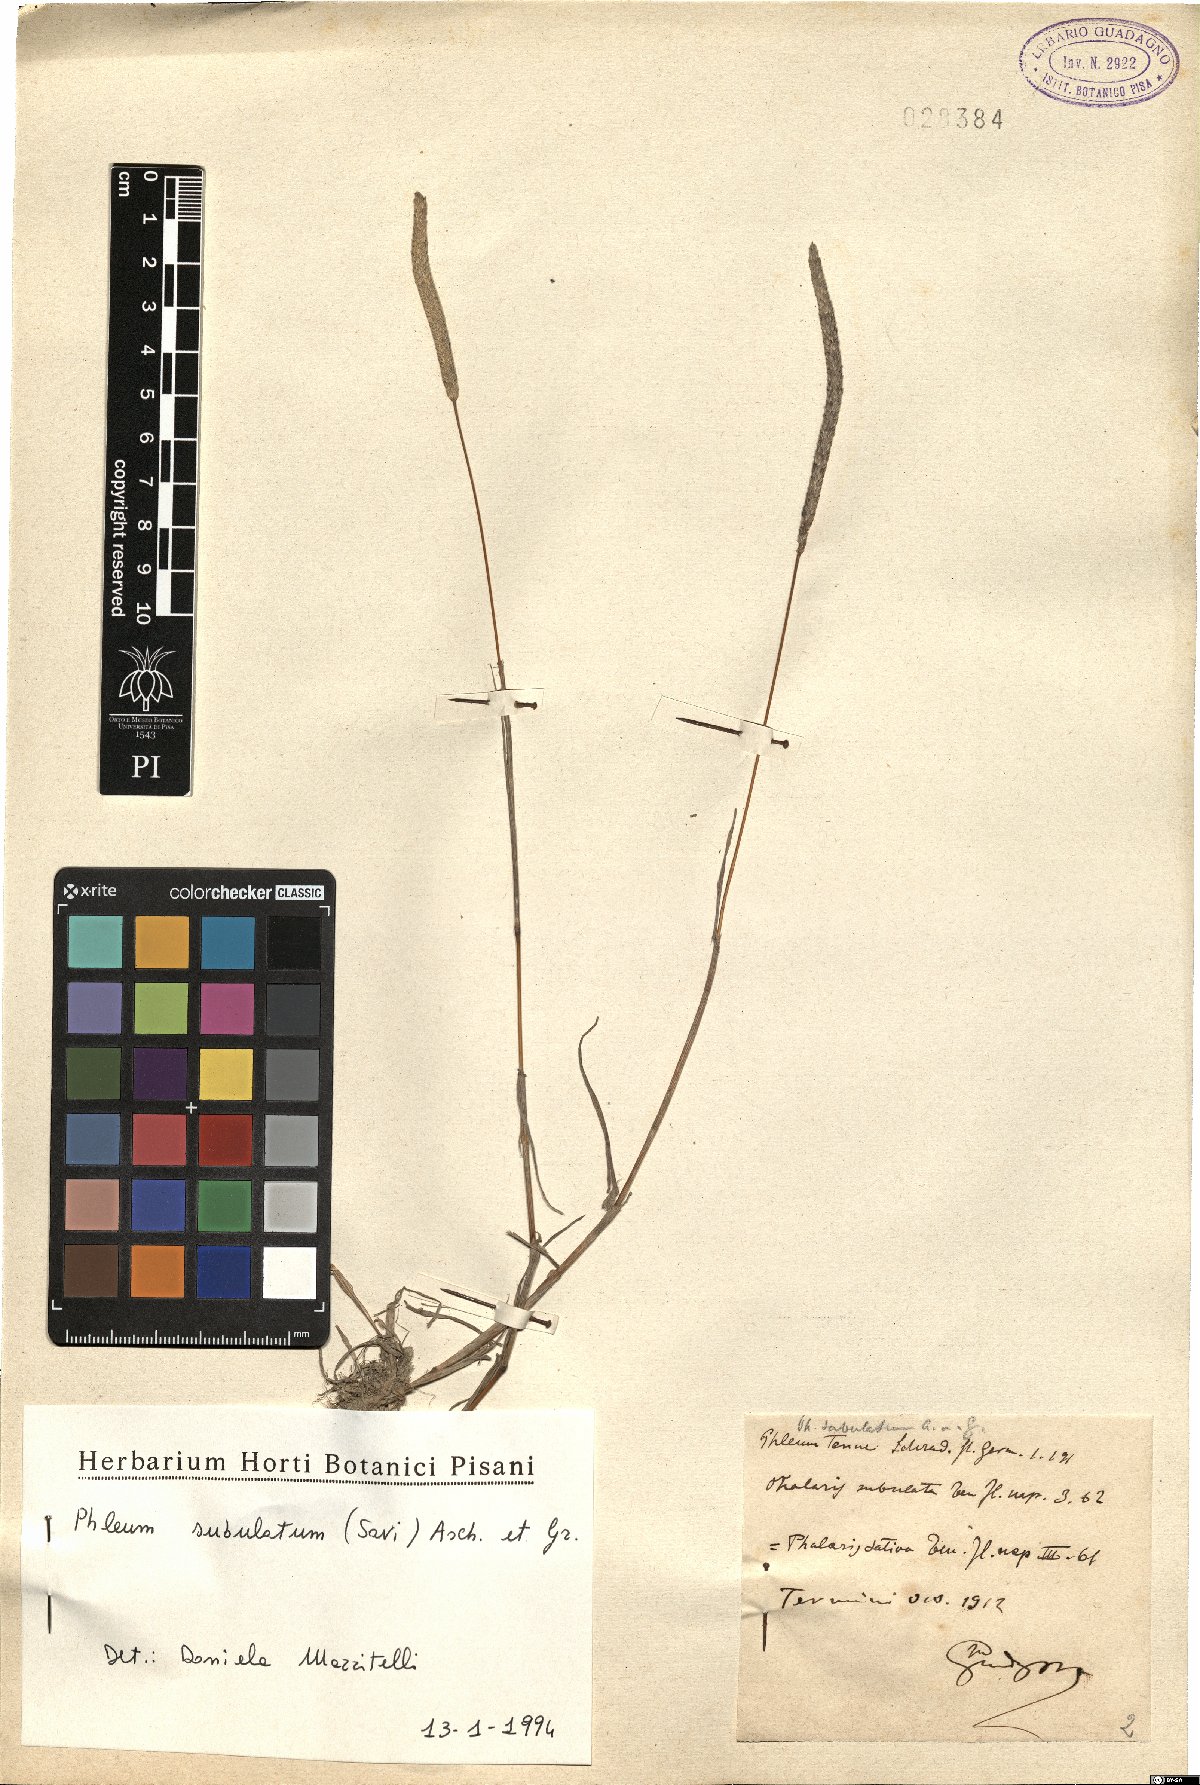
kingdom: Plantae
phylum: Tracheophyta
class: Liliopsida
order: Poales
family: Poaceae
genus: Phleum
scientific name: Phleum subulatum
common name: Italian timothy
